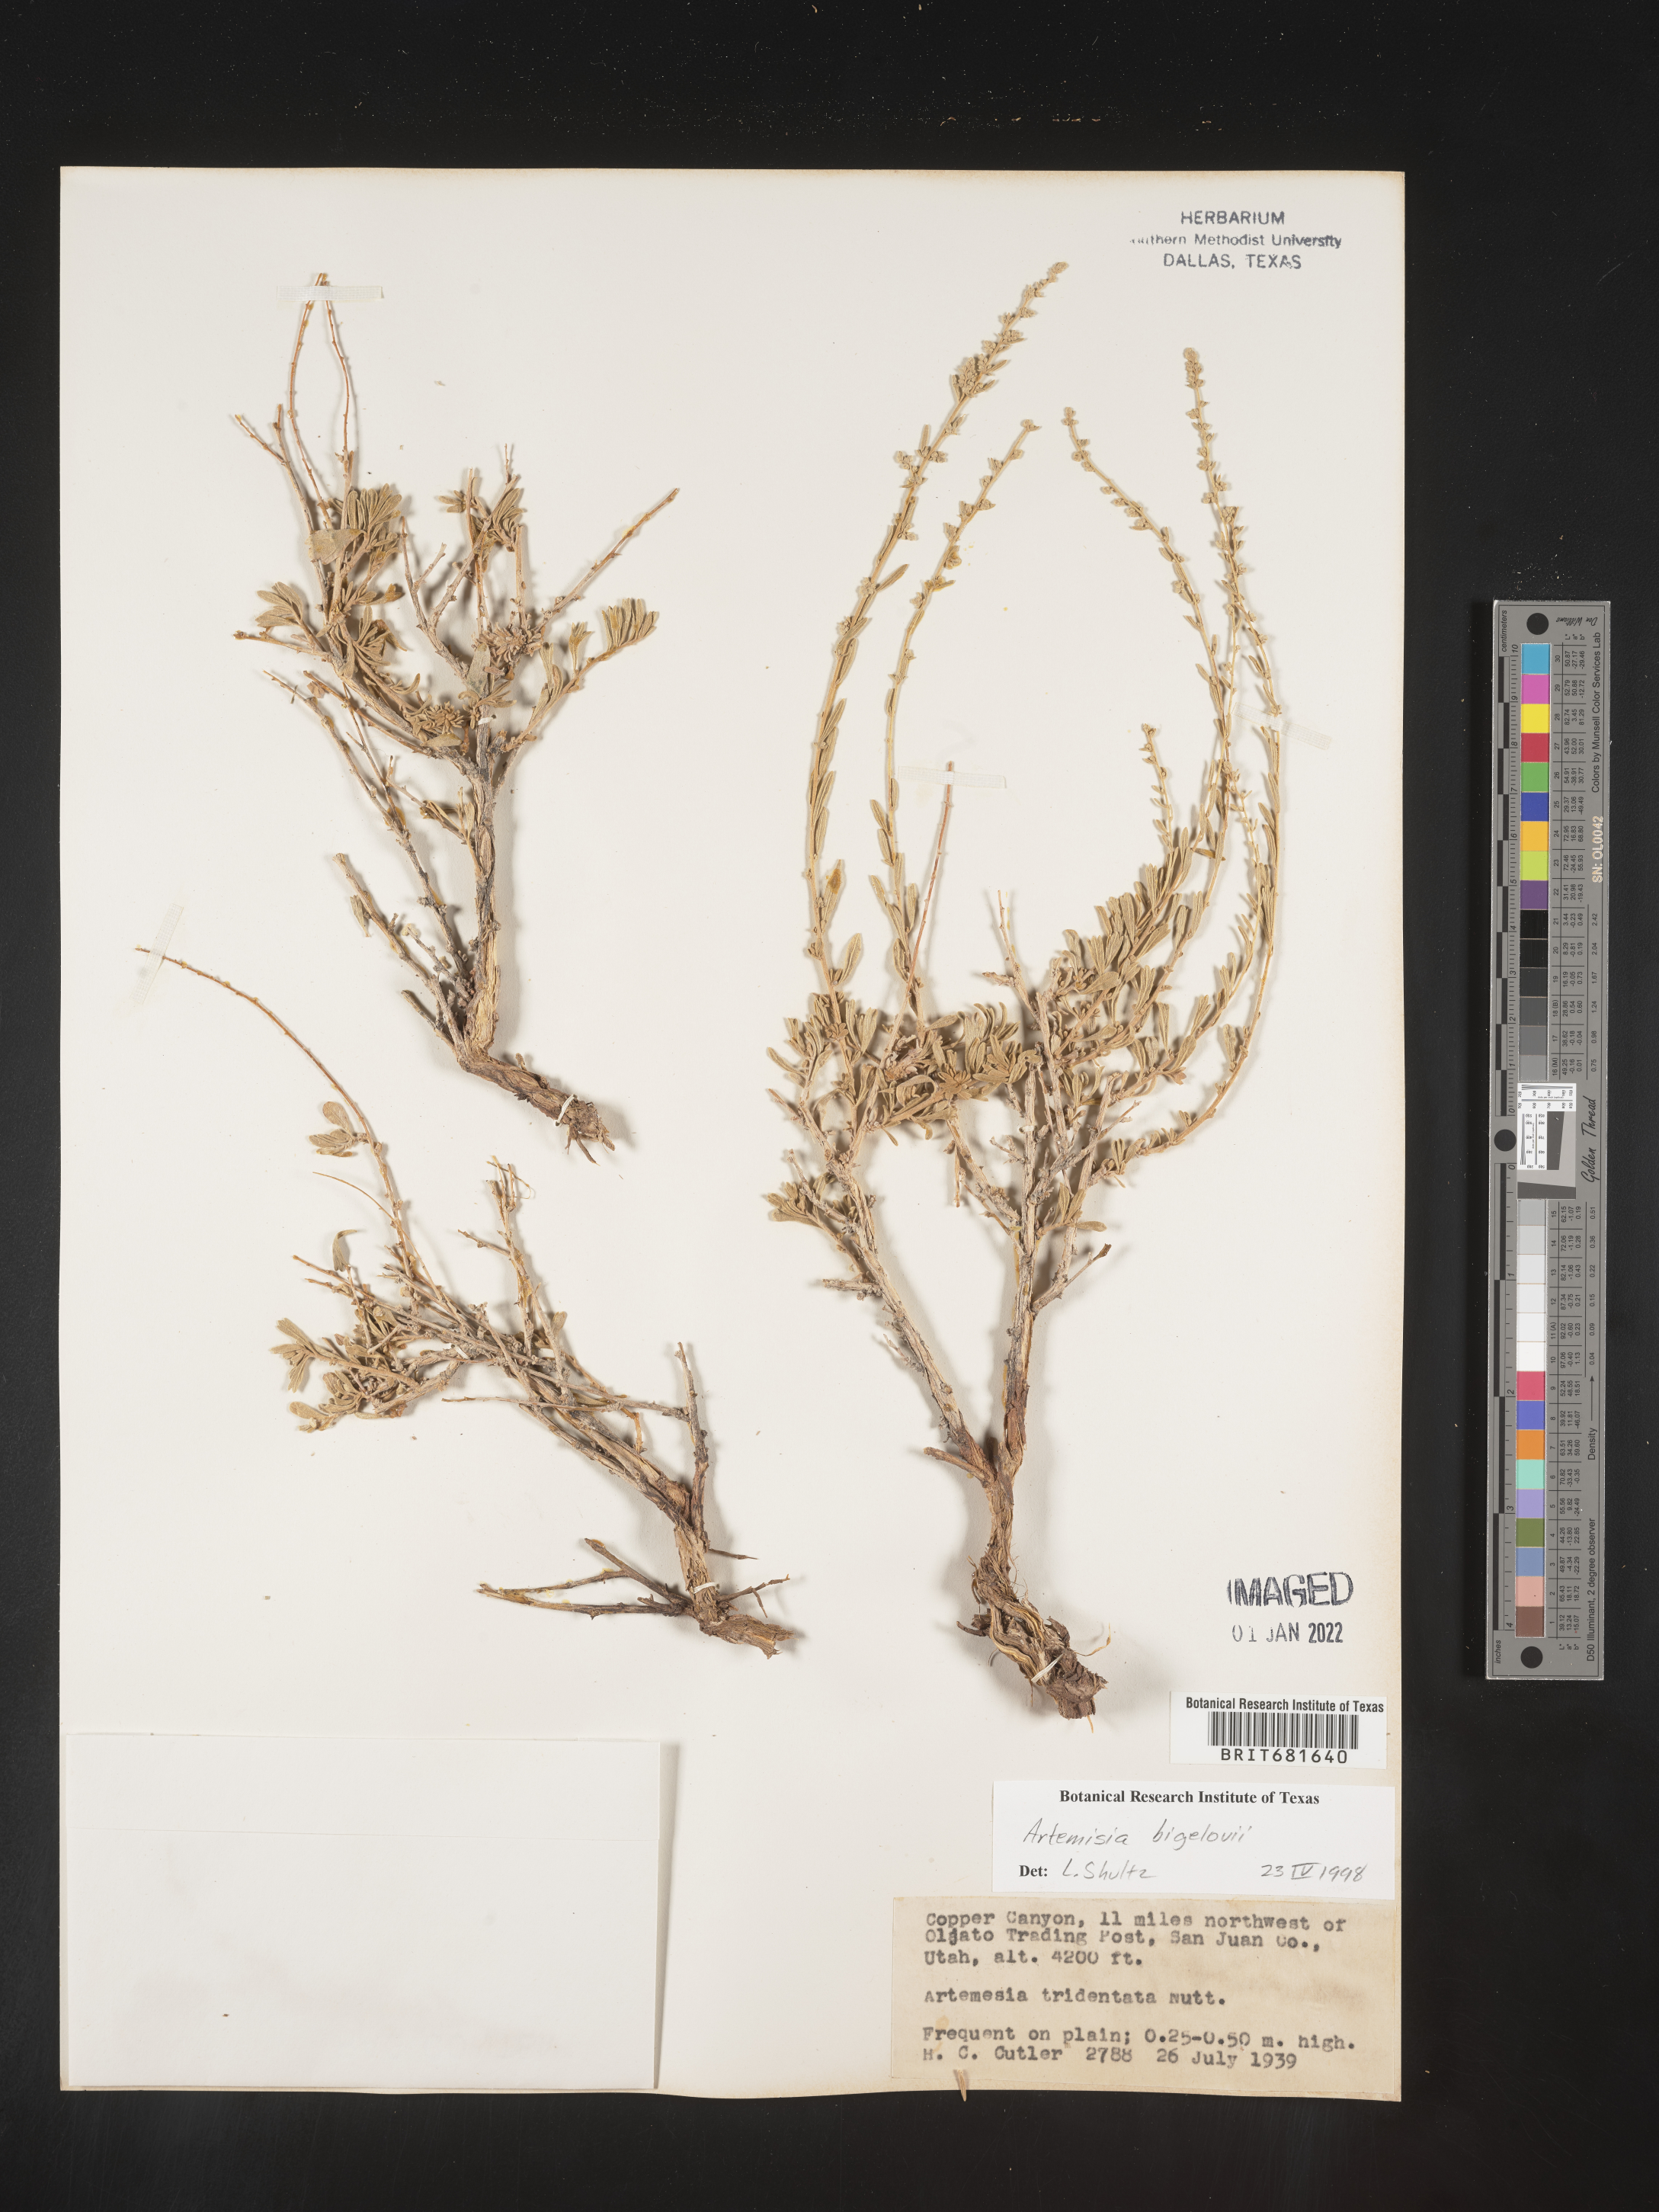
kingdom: Plantae
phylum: Tracheophyta
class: Magnoliopsida
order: Asterales
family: Asteraceae
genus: Artemisia
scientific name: Artemisia bigelovii
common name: Bigelow sagebrush
